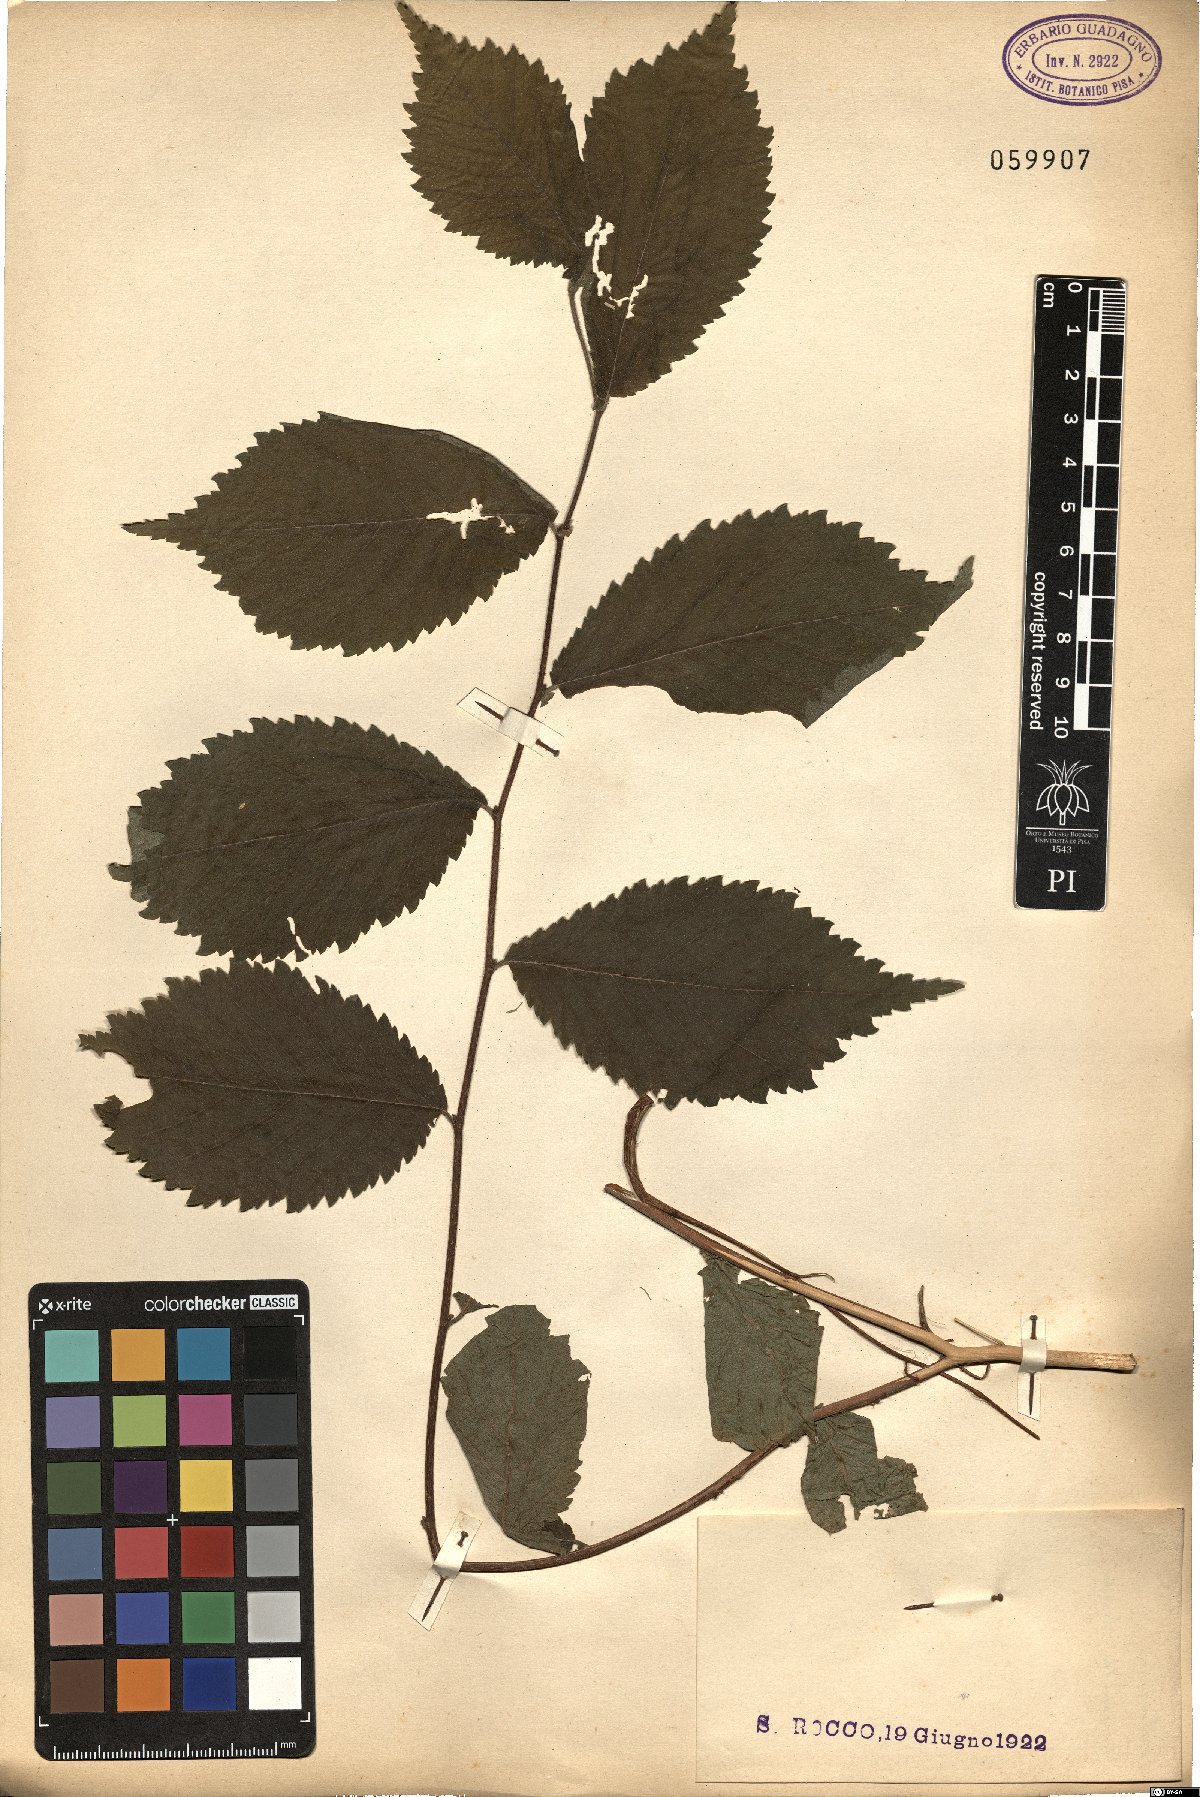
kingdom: Plantae
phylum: Tracheophyta
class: Magnoliopsida
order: Rosales
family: Ulmaceae
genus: Ulmus
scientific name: Ulmus glabra
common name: Wych elm
